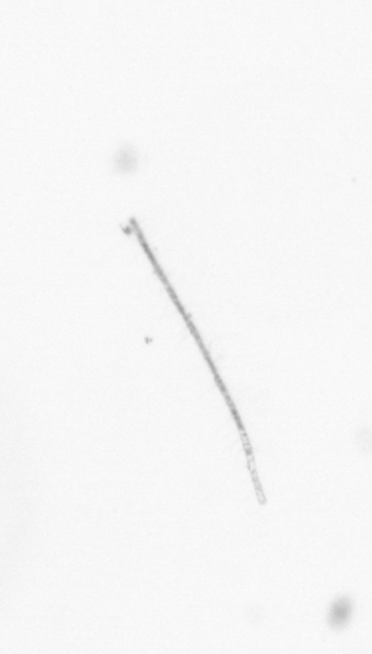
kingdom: Chromista
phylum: Ochrophyta
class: Bacillariophyceae
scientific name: Bacillariophyceae
